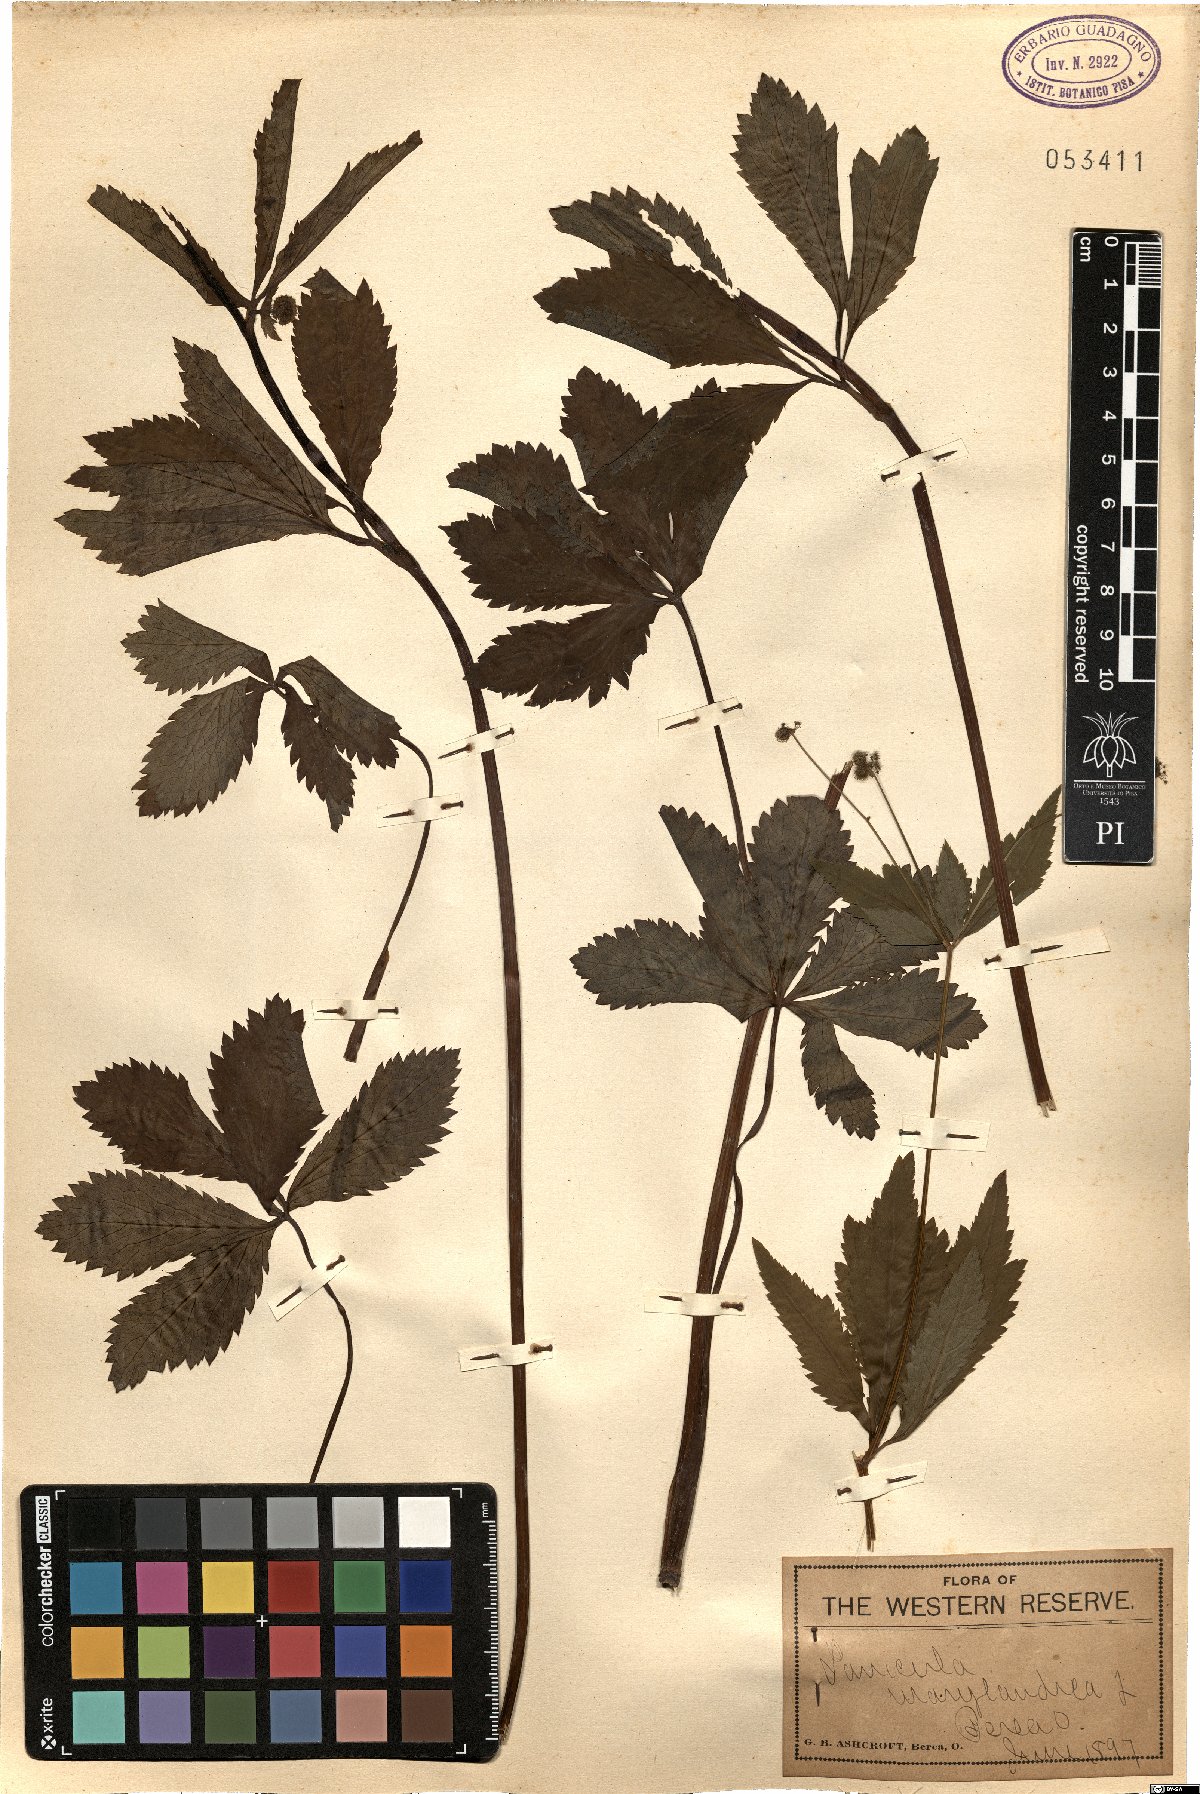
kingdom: Plantae
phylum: Tracheophyta
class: Magnoliopsida
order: Apiales
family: Apiaceae
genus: Sanicula
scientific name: Sanicula marilandica
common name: Black snakeroot
